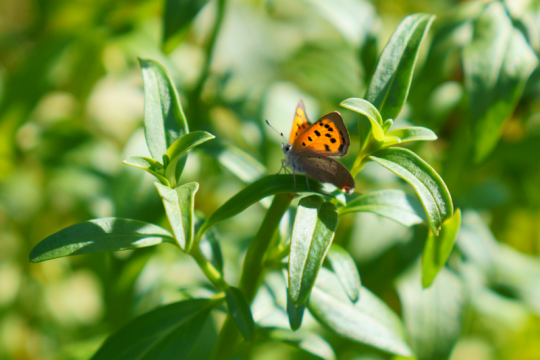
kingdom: Animalia
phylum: Arthropoda
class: Insecta
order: Lepidoptera
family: Lycaenidae
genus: Lycaena
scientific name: Lycaena phlaeas
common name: American Copper
